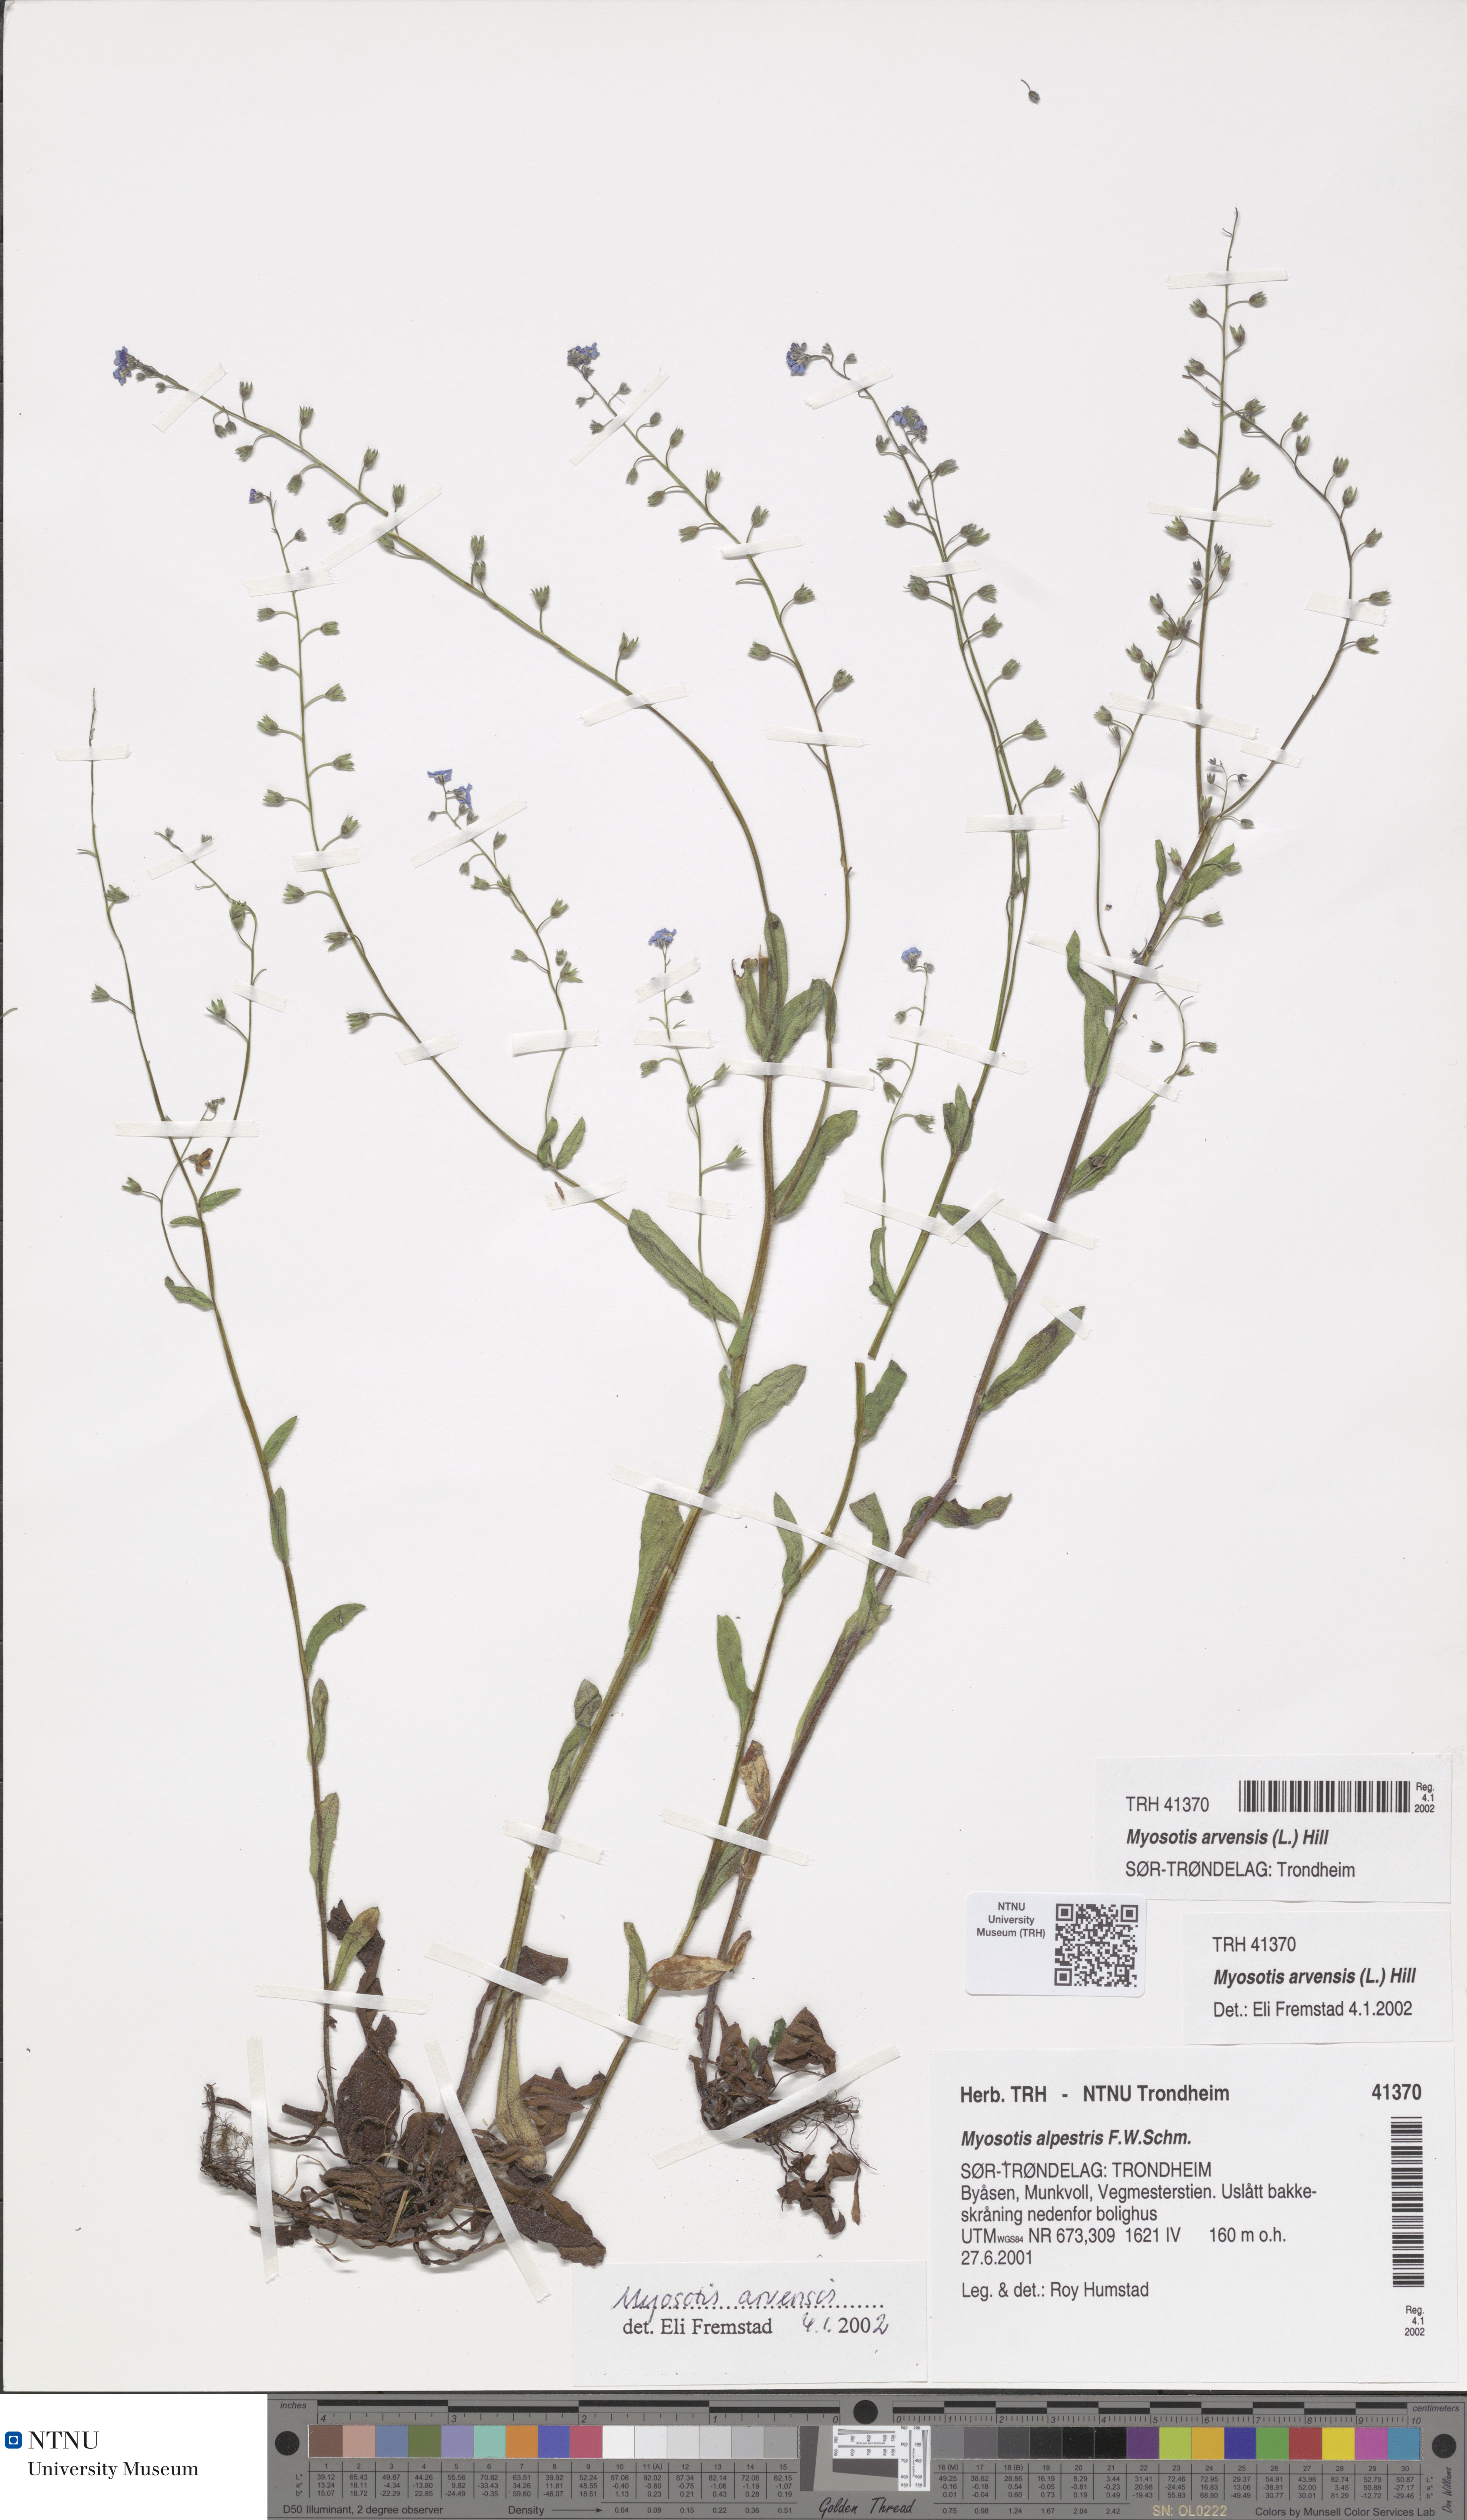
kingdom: Plantae
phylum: Tracheophyta
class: Magnoliopsida
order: Boraginales
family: Boraginaceae
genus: Myosotis
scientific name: Myosotis arvensis
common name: Field forget-me-not
